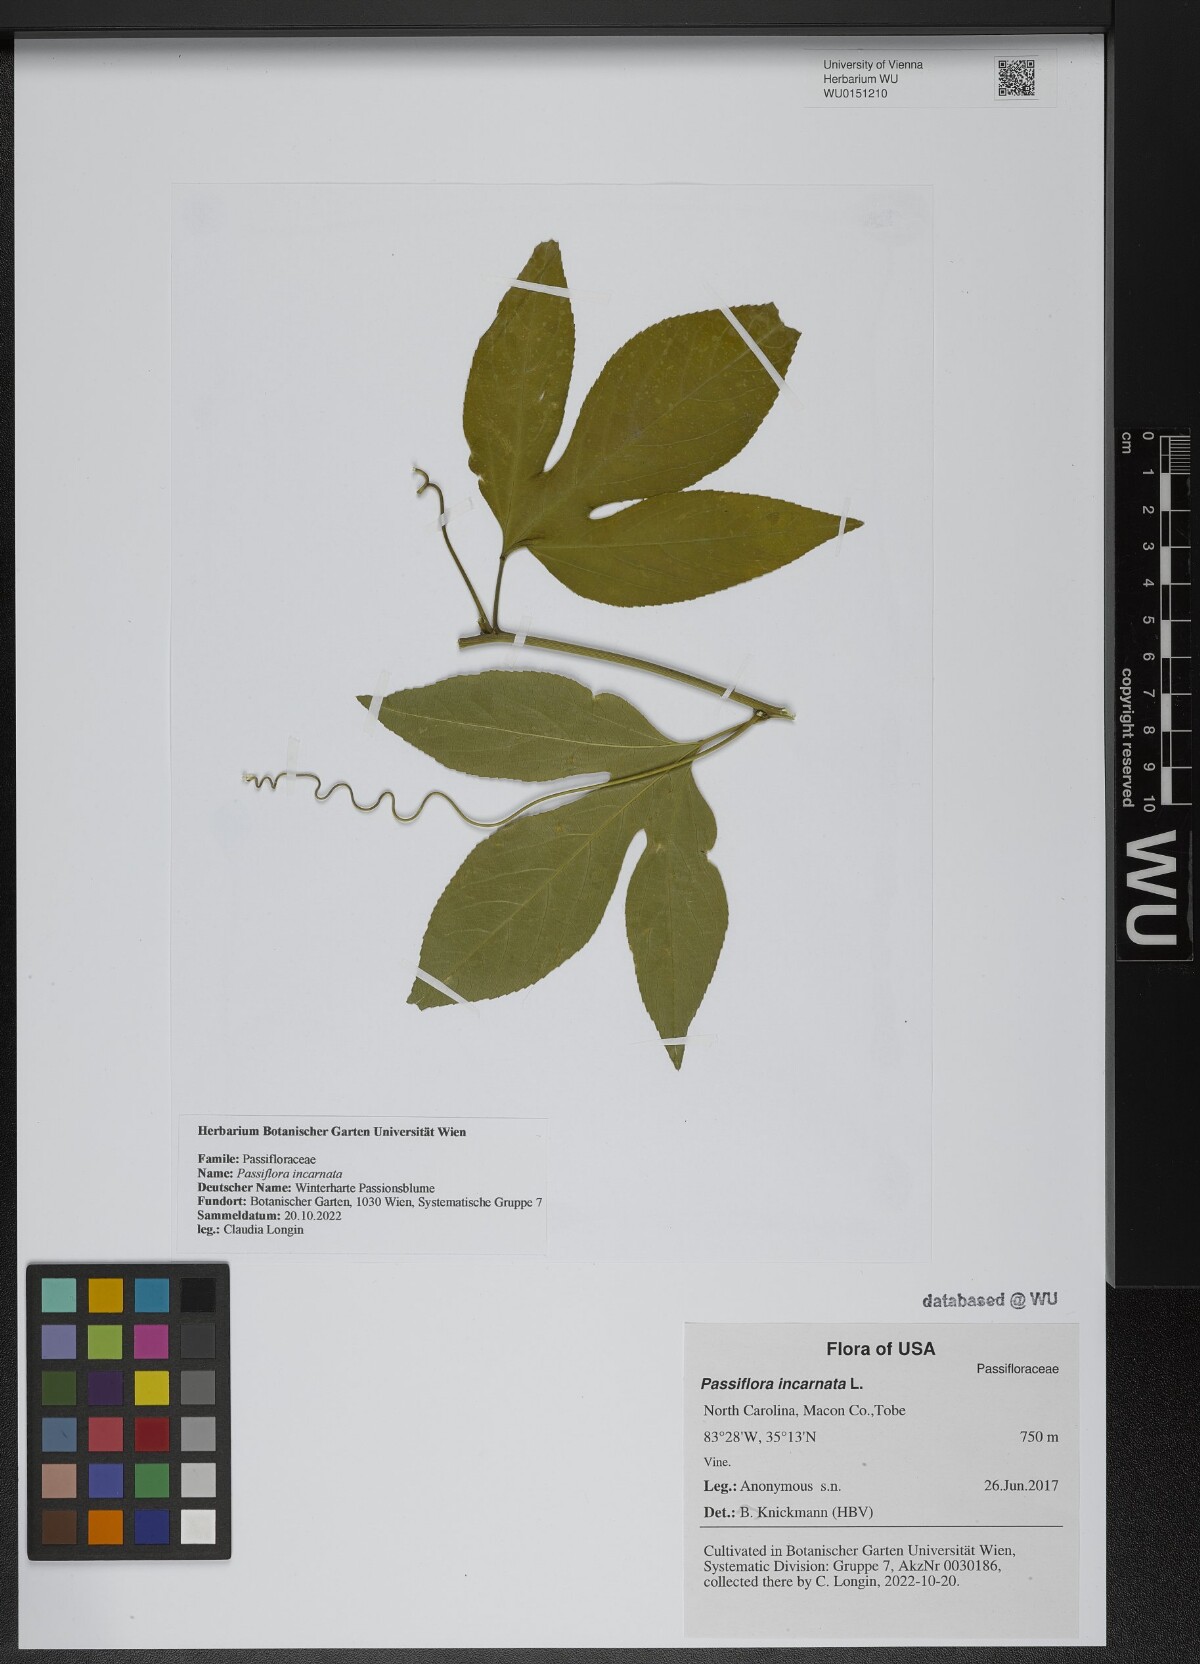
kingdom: Plantae
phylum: Tracheophyta
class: Magnoliopsida
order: Malpighiales
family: Passifloraceae
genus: Passiflora
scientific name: Passiflora incarnata
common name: Apricot-vine
